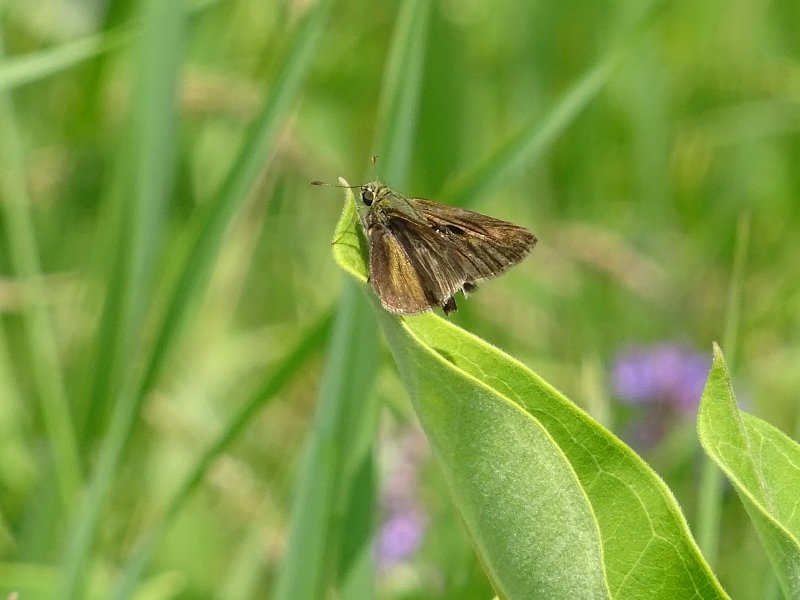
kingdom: Animalia
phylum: Arthropoda
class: Insecta
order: Lepidoptera
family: Hesperiidae
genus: Polites
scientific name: Polites egeremet
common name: Northern Broken-Dash
